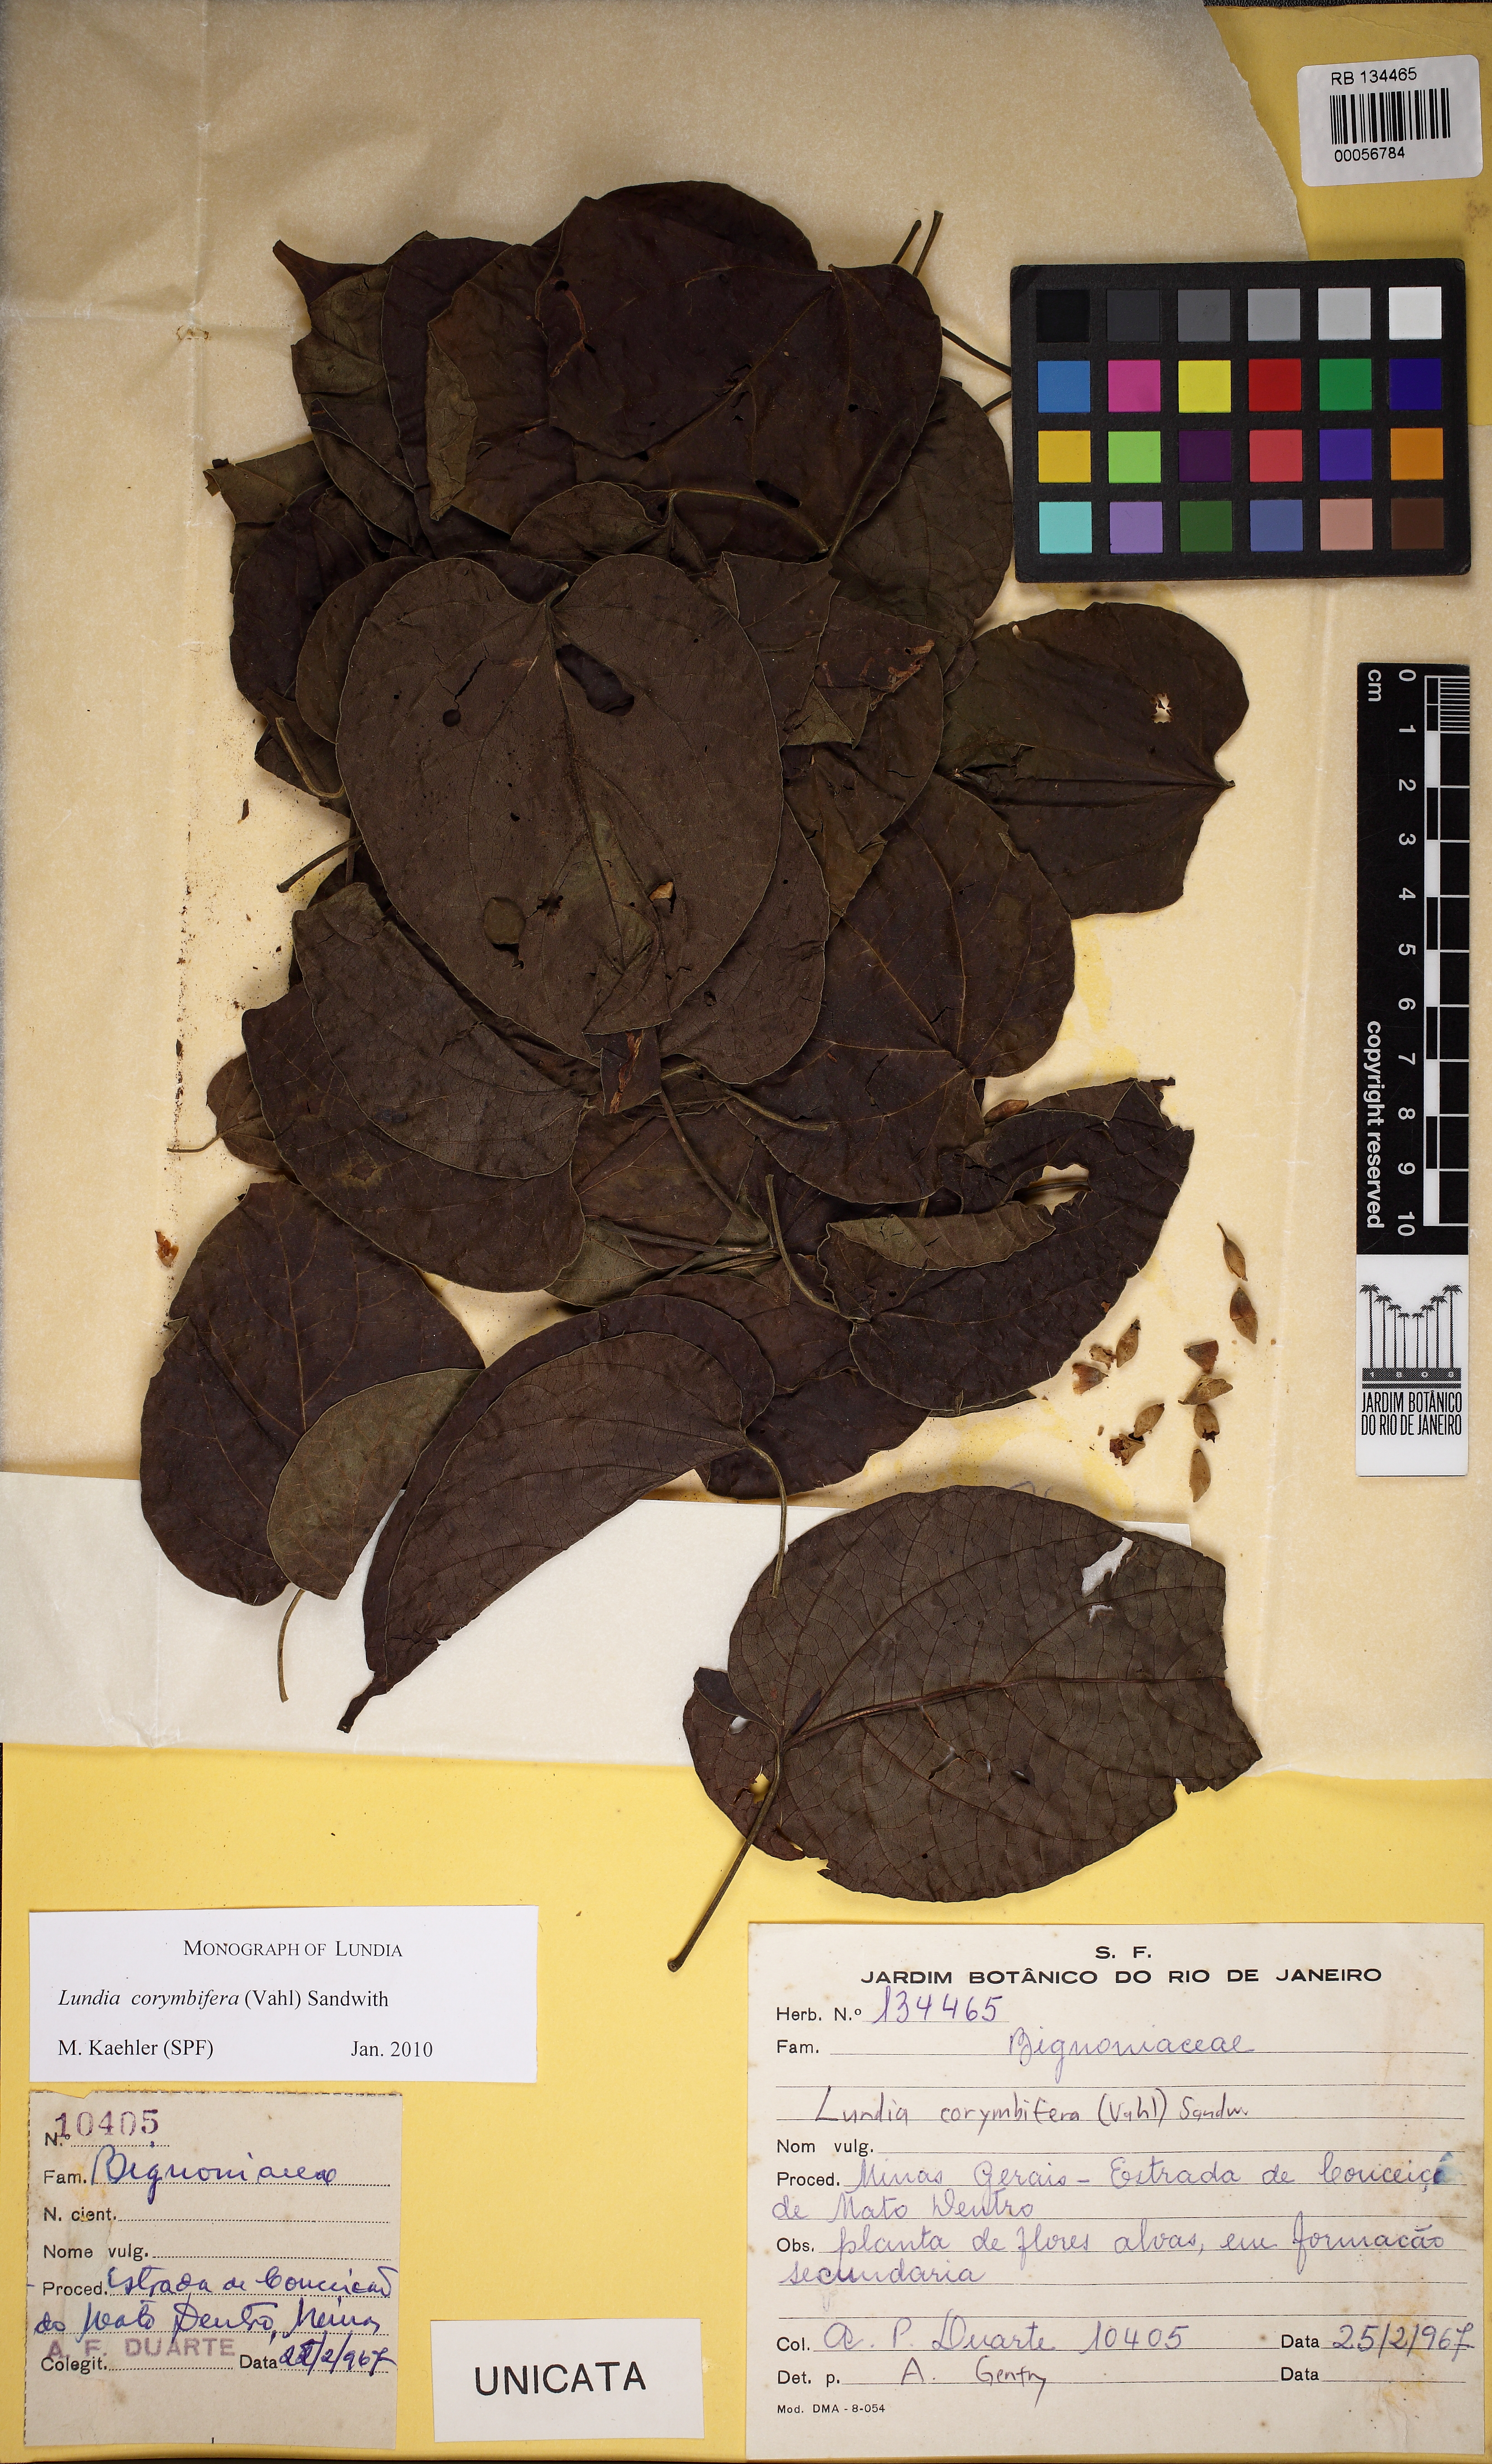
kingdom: Plantae
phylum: Tracheophyta
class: Magnoliopsida
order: Lamiales
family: Bignoniaceae
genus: Lundia
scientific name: Lundia corymbifera
